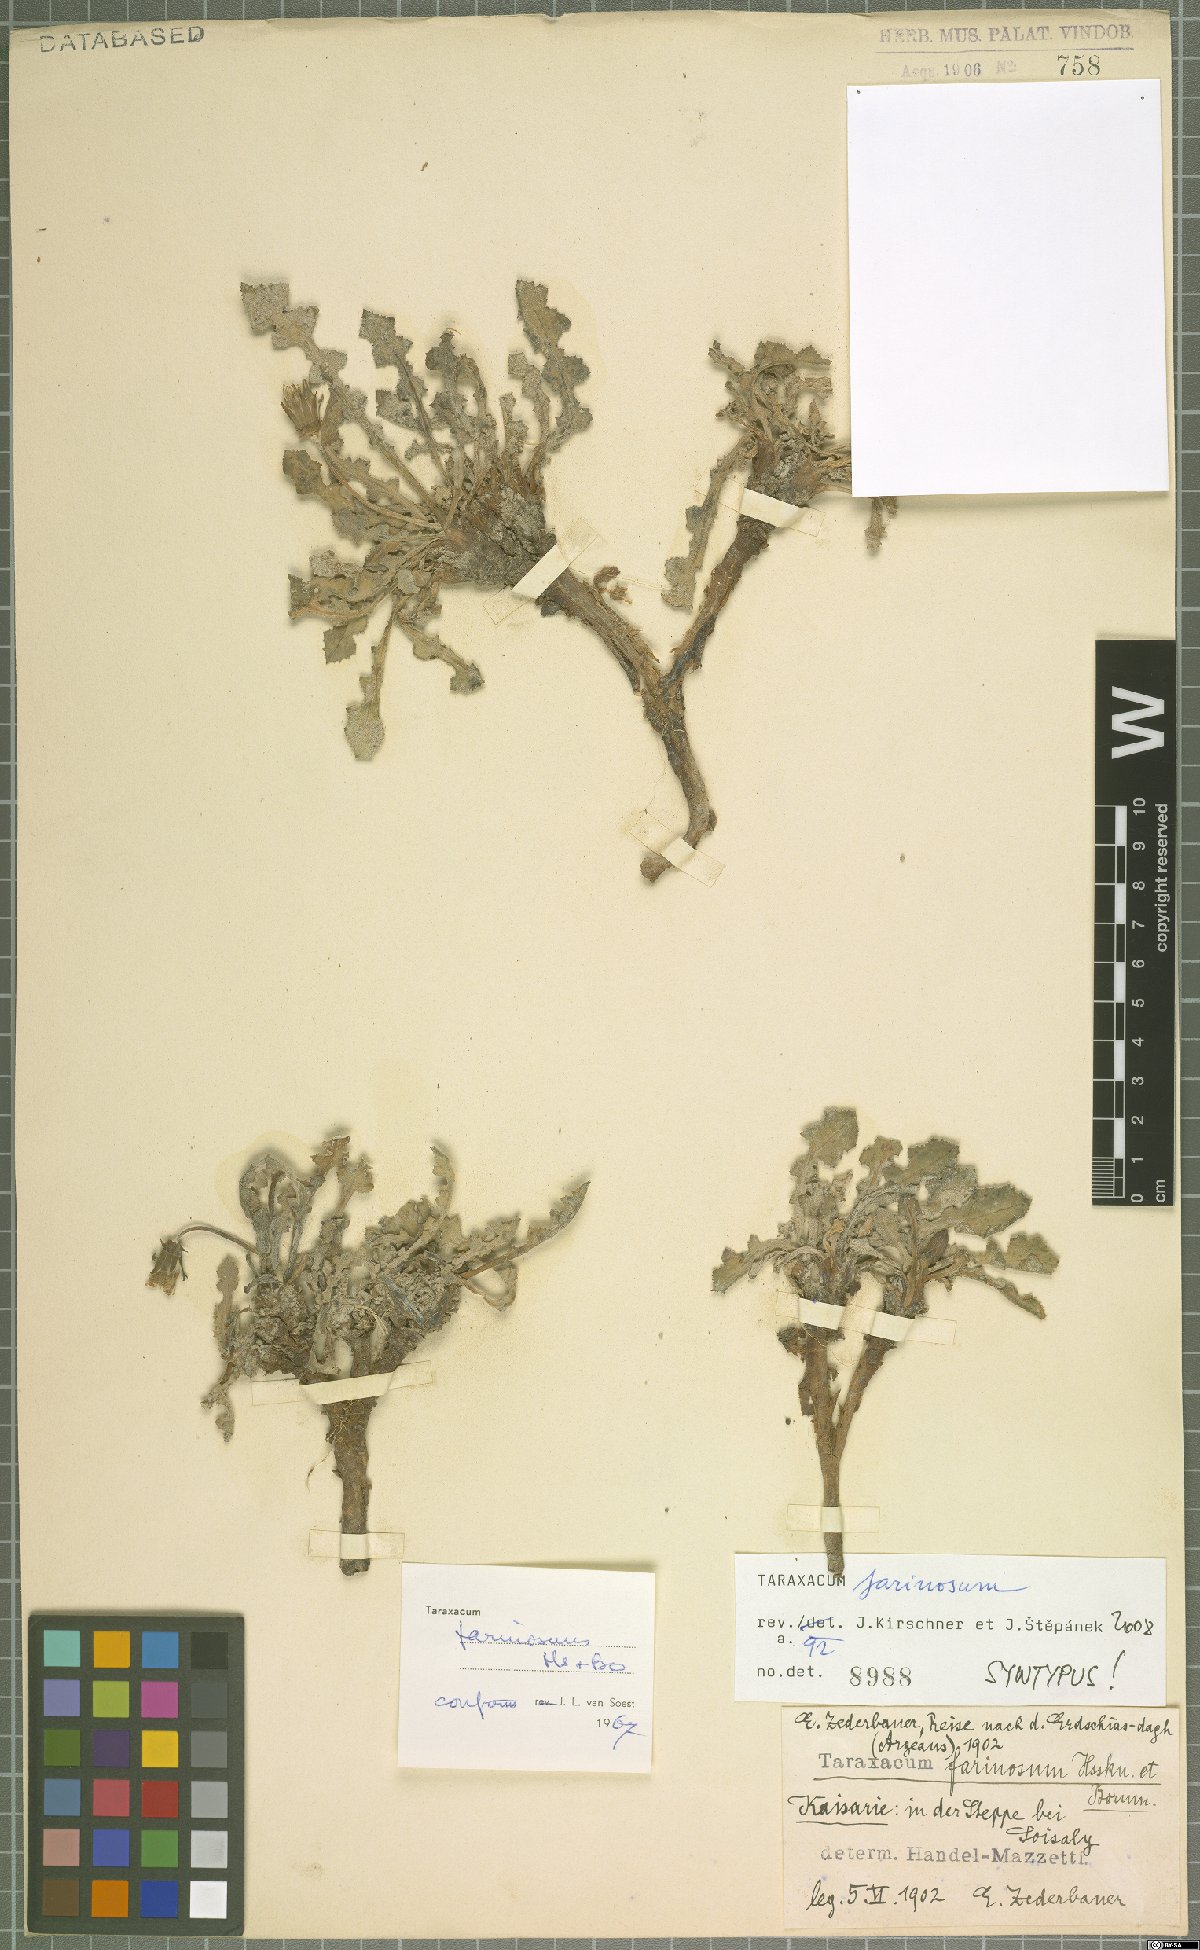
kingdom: Plantae
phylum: Tracheophyta
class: Magnoliopsida
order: Asterales
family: Asteraceae
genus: Taraxacum
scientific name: Taraxacum farinosum
